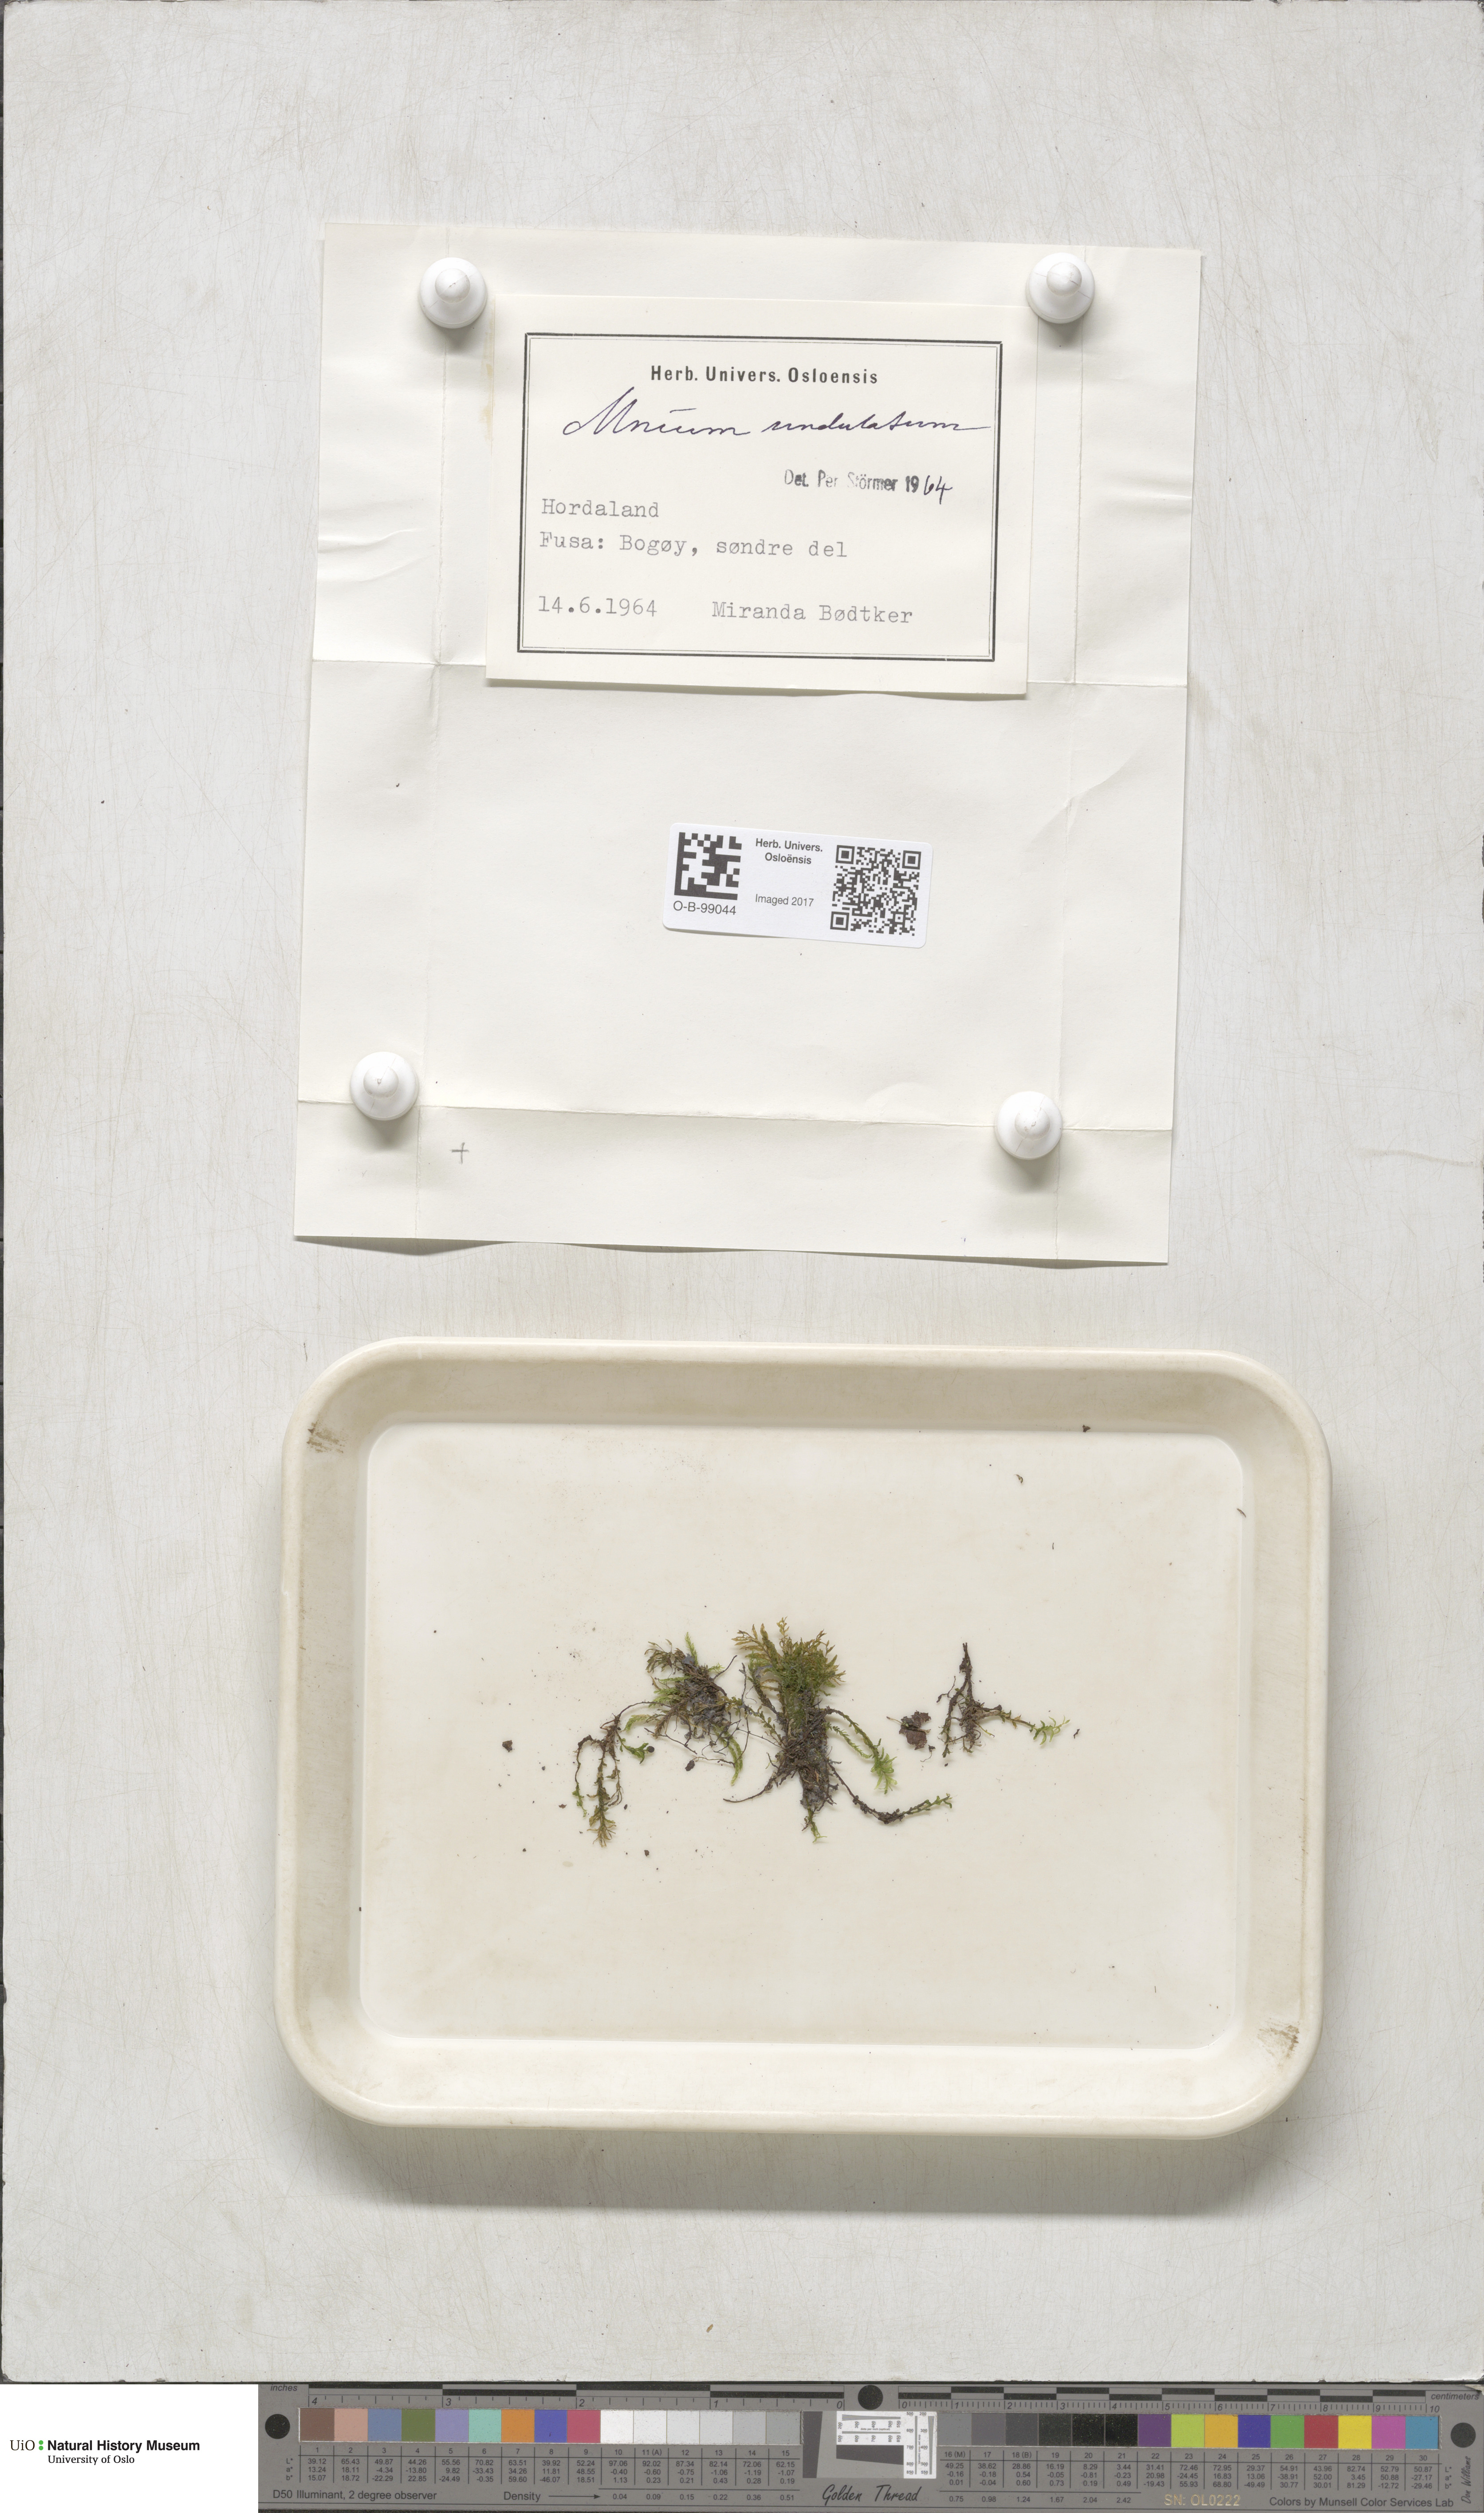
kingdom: Plantae
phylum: Bryophyta
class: Bryopsida
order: Bryales
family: Mniaceae
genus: Plagiomnium
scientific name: Plagiomnium undulatum
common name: Hart's-tongue thyme-moss
